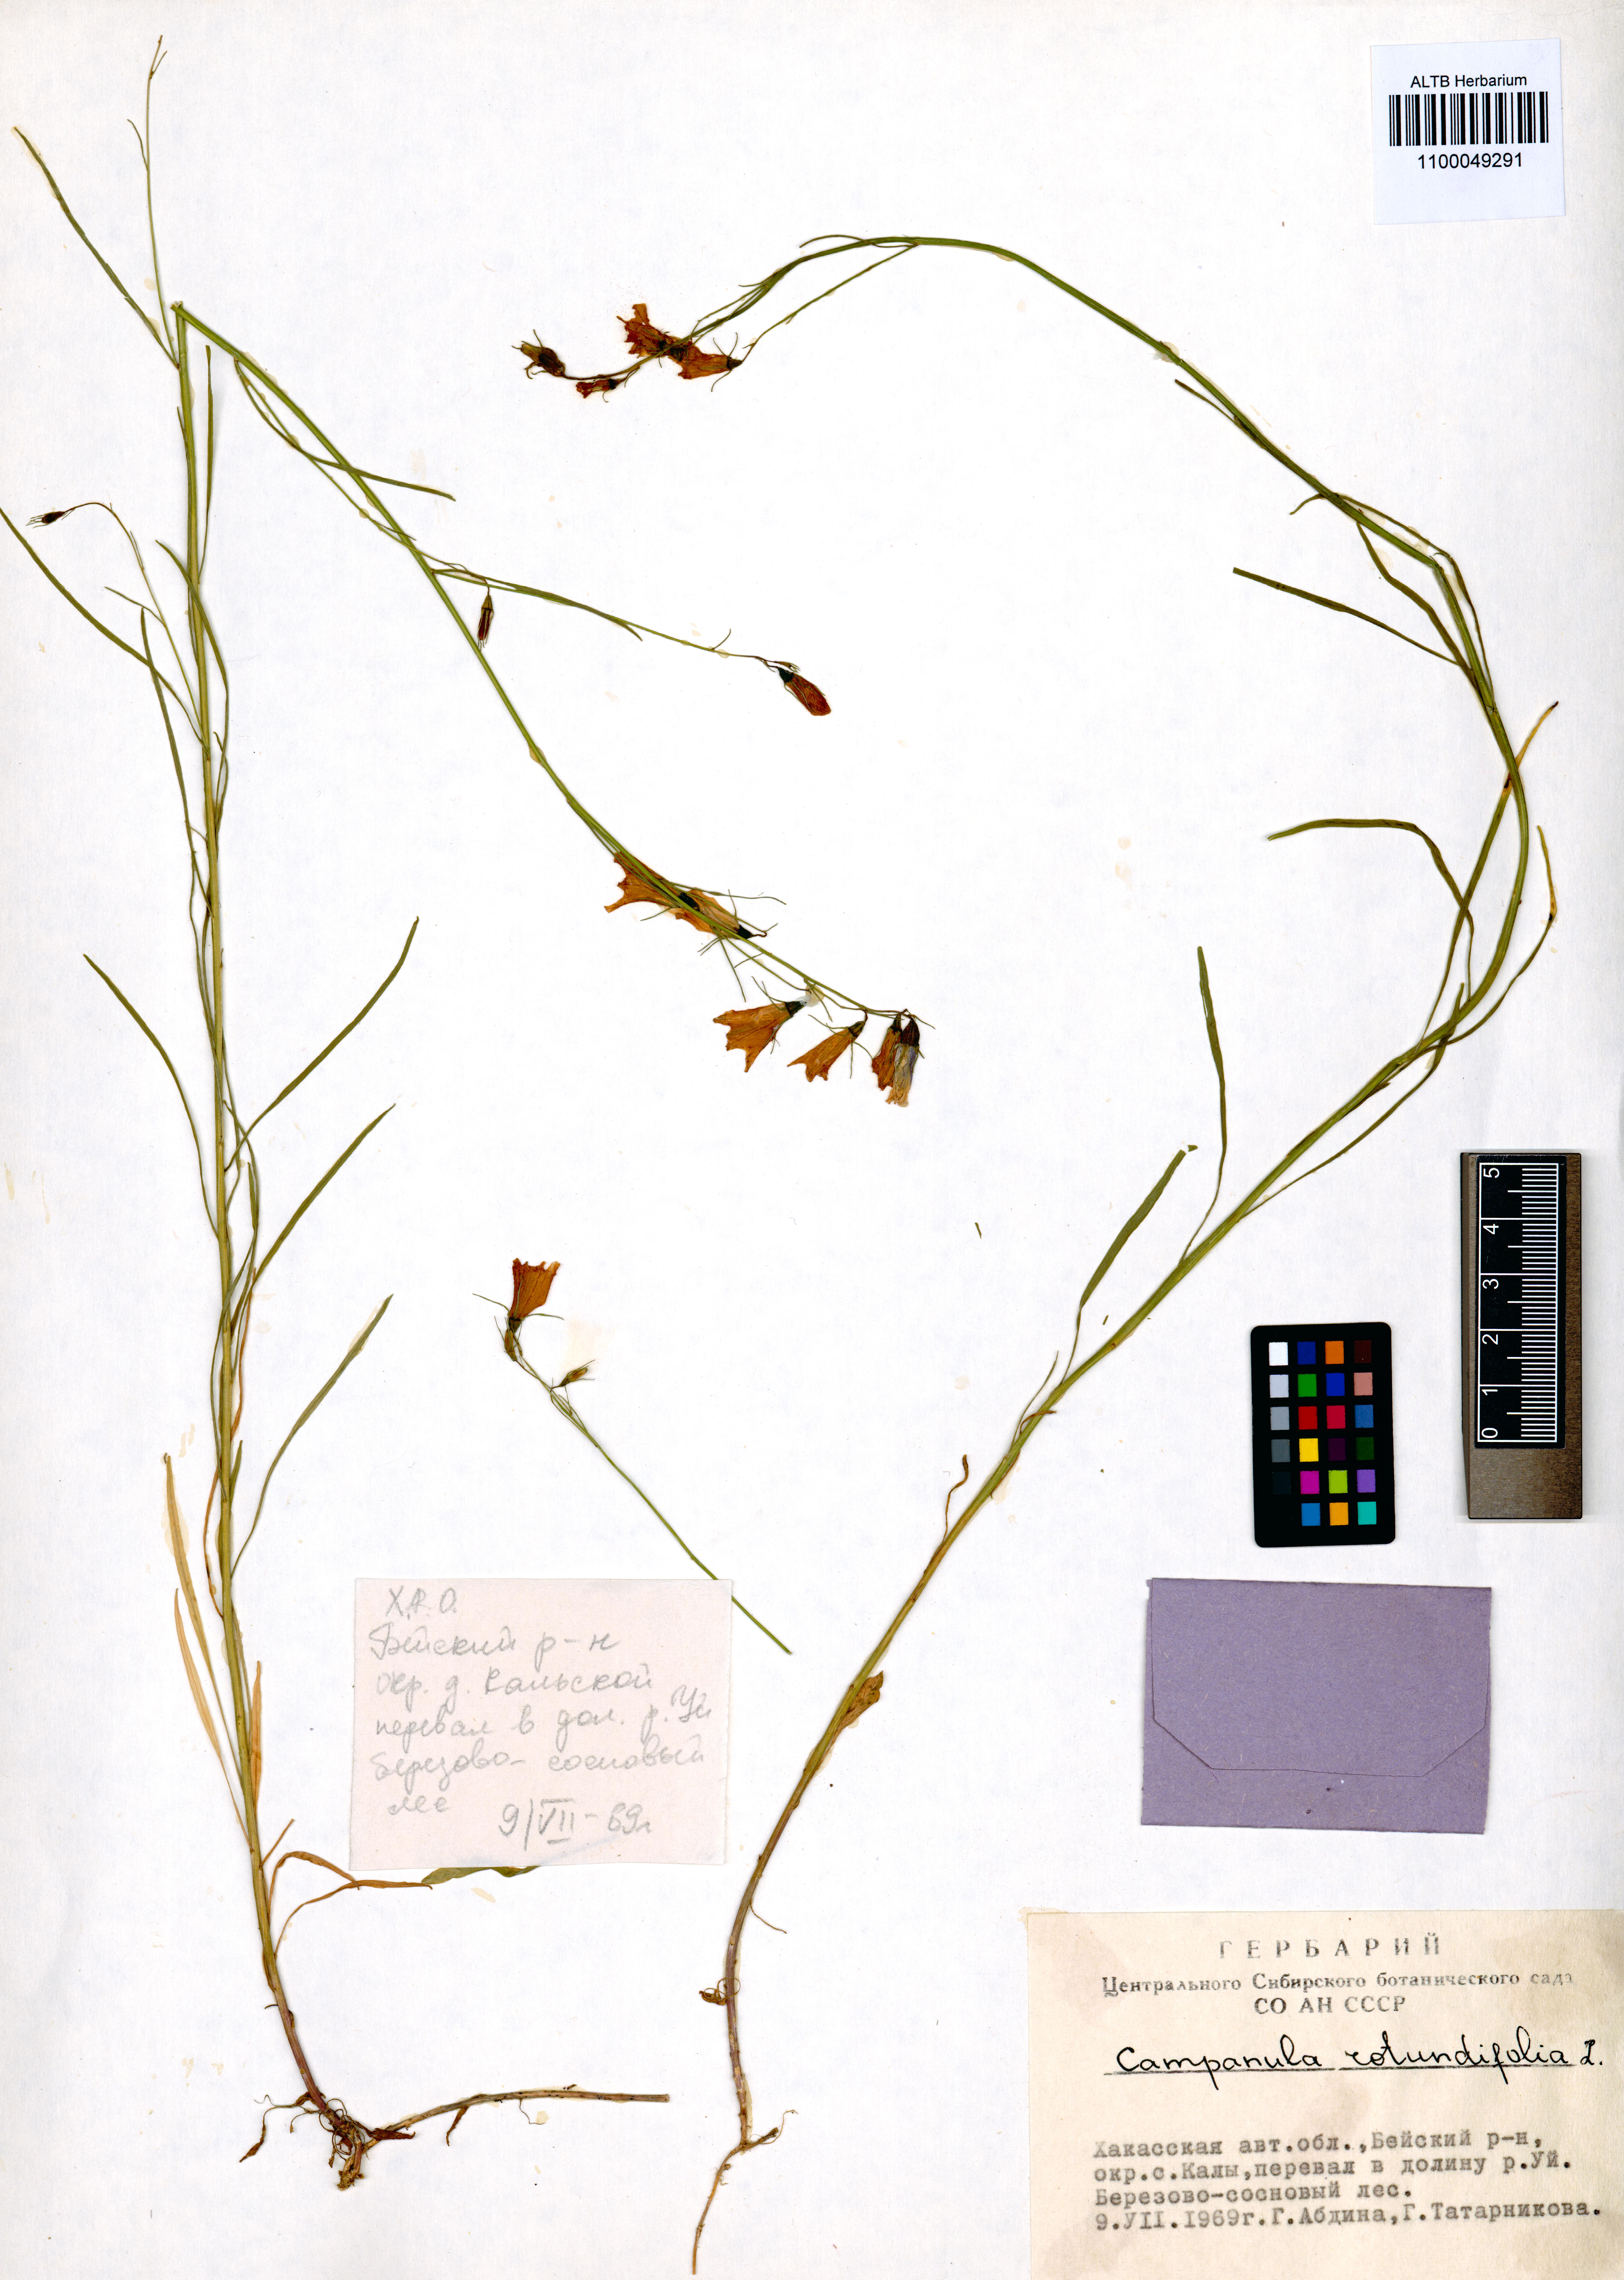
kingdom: Plantae
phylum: Tracheophyta
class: Magnoliopsida
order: Asterales
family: Campanulaceae
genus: Campanula
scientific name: Campanula rotundifolia
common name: Harebell
